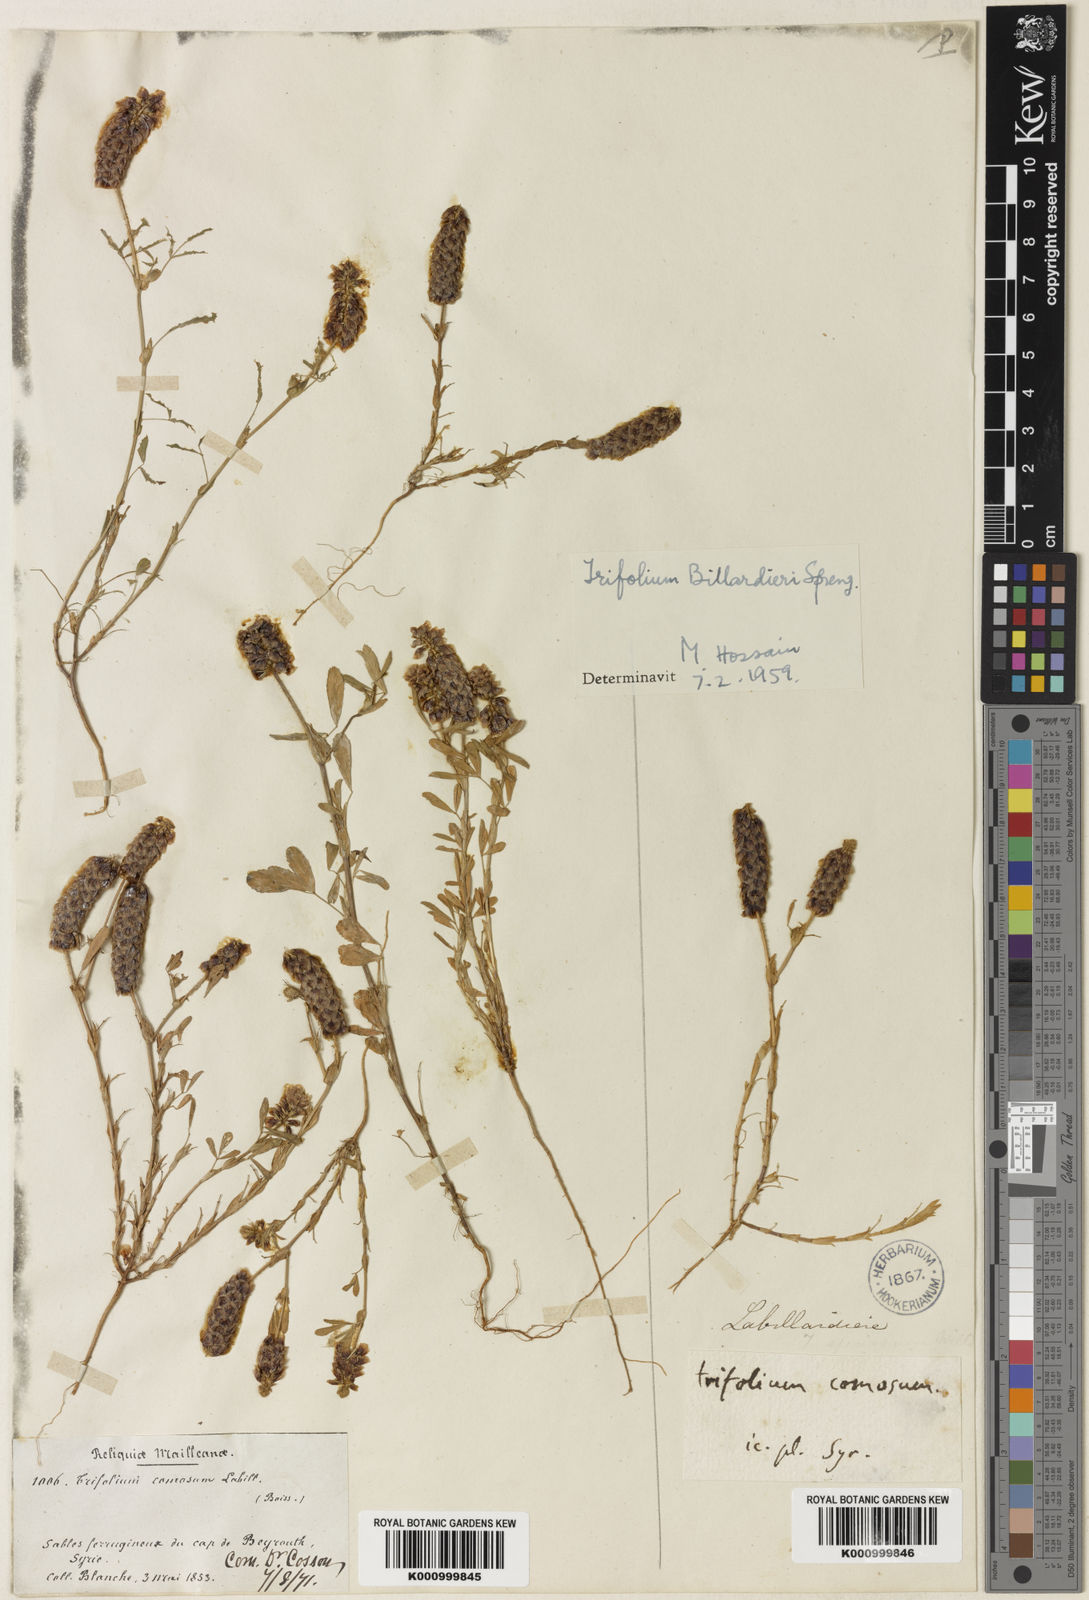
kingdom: Plantae
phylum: Tracheophyta
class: Magnoliopsida
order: Fabales
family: Fabaceae
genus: Trifolium
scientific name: Trifolium billardierei
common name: Labillardiere's clover
